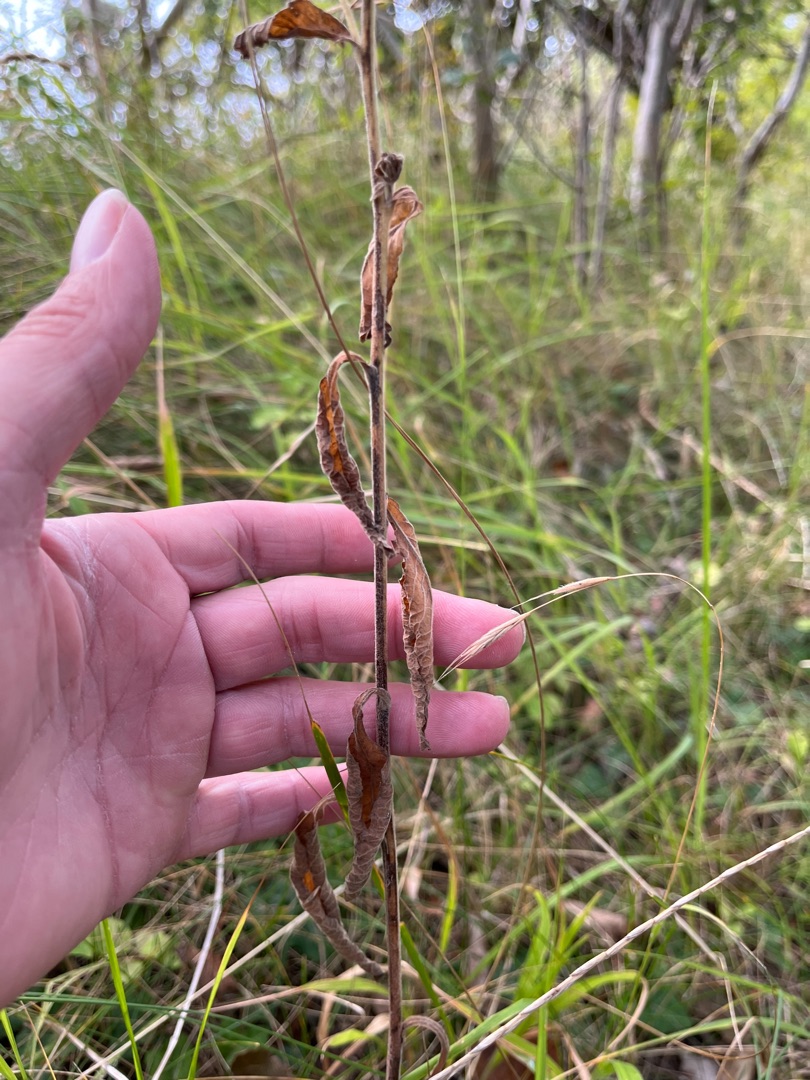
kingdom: Plantae
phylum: Tracheophyta
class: Magnoliopsida
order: Asterales
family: Asteraceae
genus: Pentanema
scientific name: Pentanema squarrosum
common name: Trekløft-alant
